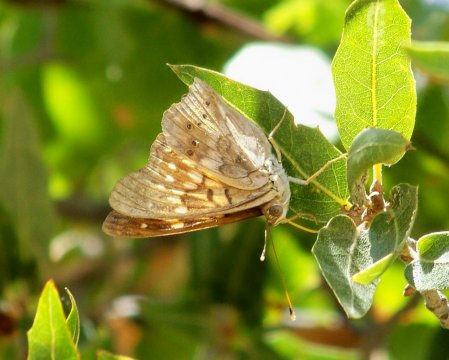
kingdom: Animalia
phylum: Arthropoda
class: Insecta
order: Lepidoptera
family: Nymphalidae
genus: Asterocampa
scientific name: Asterocampa clyton
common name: Tawny Emperor
